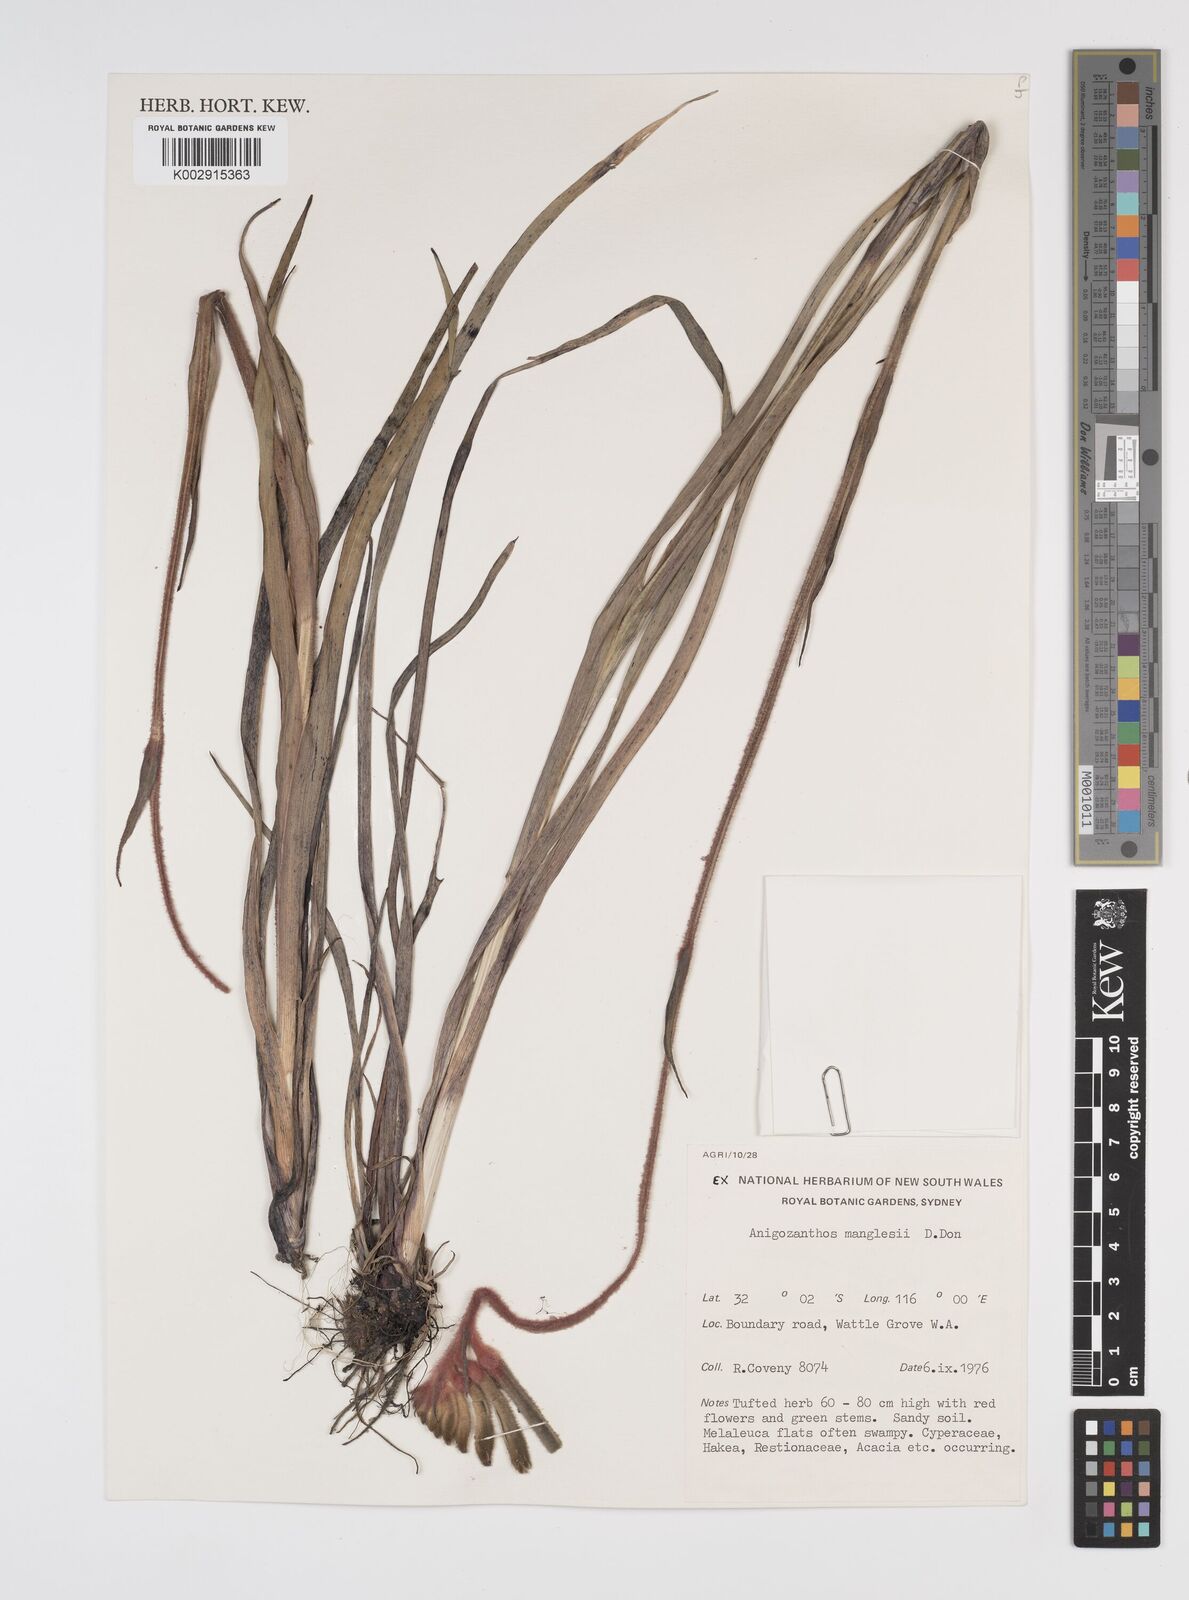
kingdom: Plantae
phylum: Tracheophyta
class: Liliopsida
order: Commelinales
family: Haemodoraceae
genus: Anigozanthos
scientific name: Anigozanthos manglesii
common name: Mangles's kangaroo-paw
